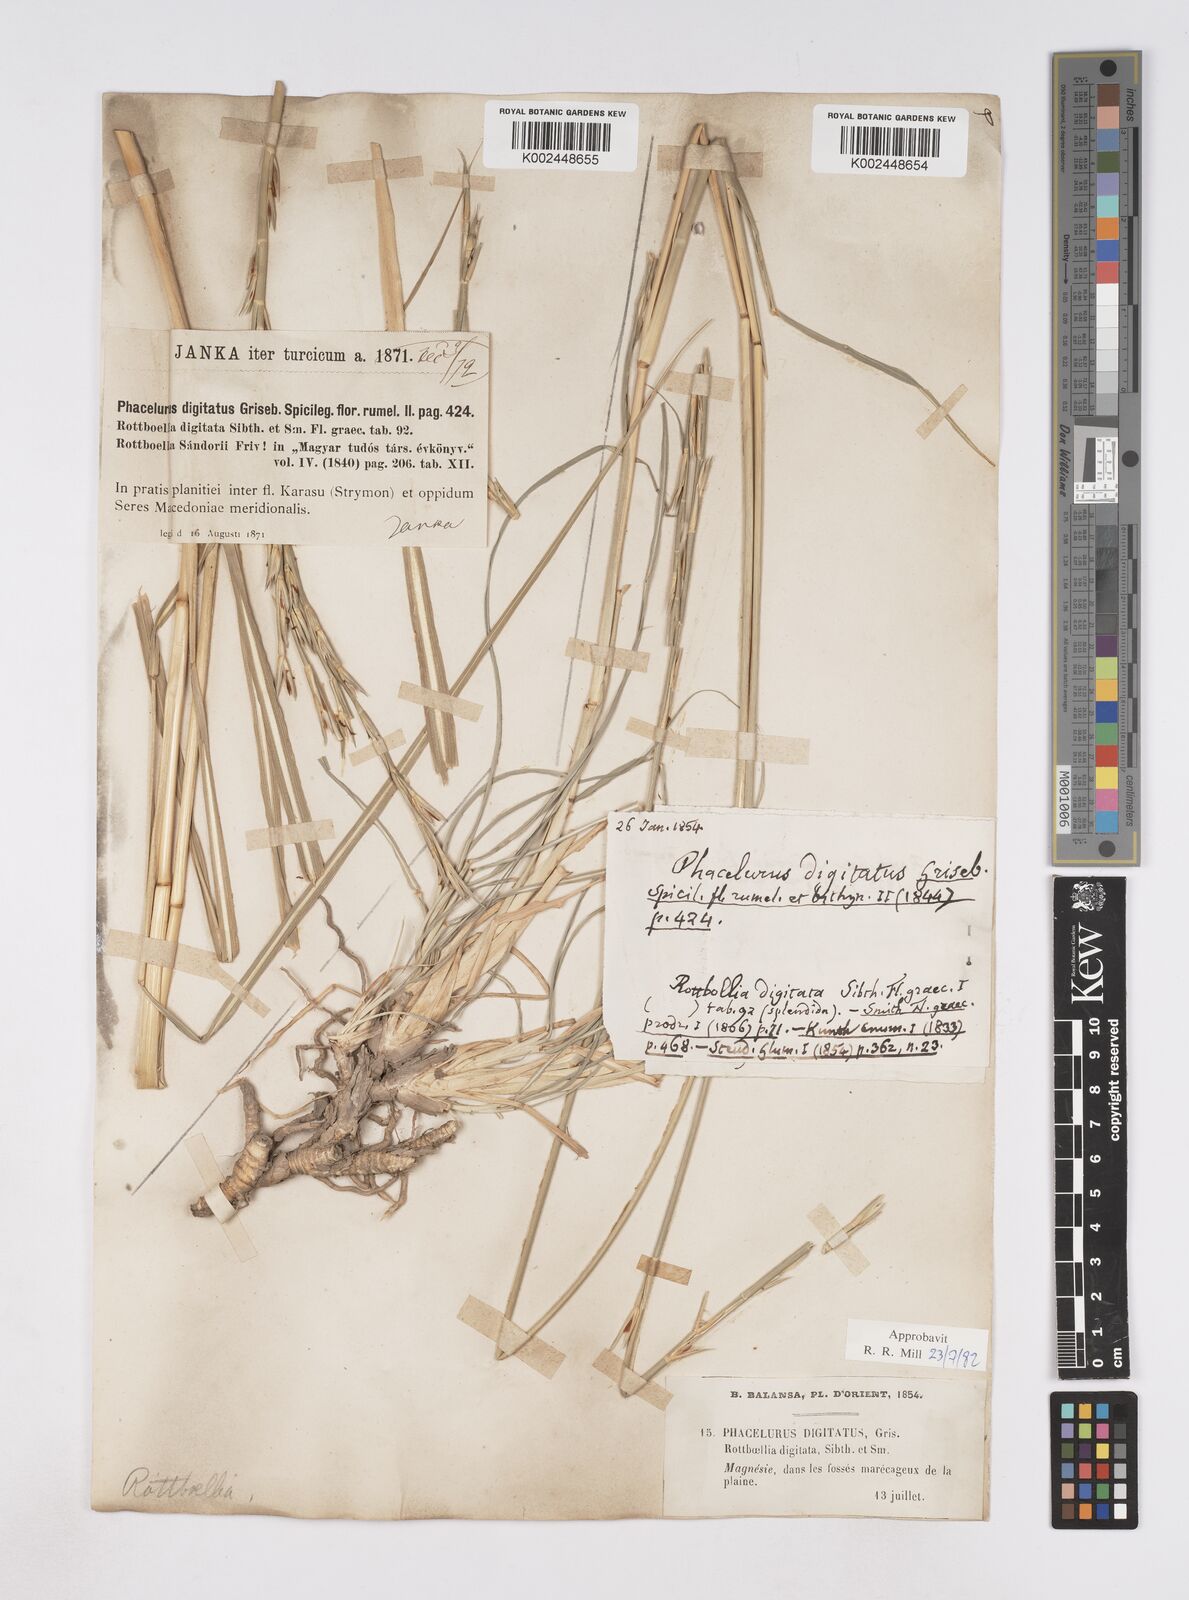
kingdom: Plantae
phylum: Tracheophyta
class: Liliopsida
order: Poales
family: Poaceae
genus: Phacelurus
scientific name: Phacelurus digitatus
